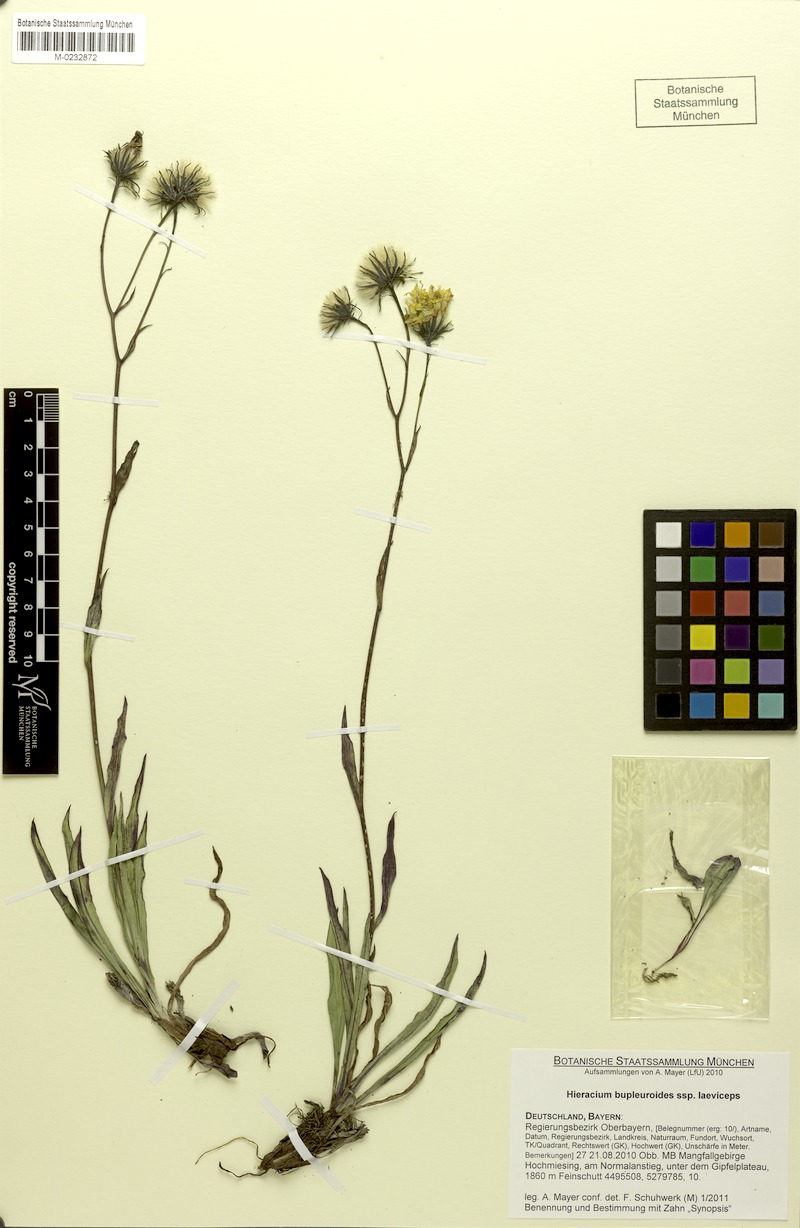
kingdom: Plantae
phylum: Tracheophyta
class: Magnoliopsida
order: Asterales
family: Asteraceae
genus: Hieracium
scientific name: Hieracium bupleuroides
